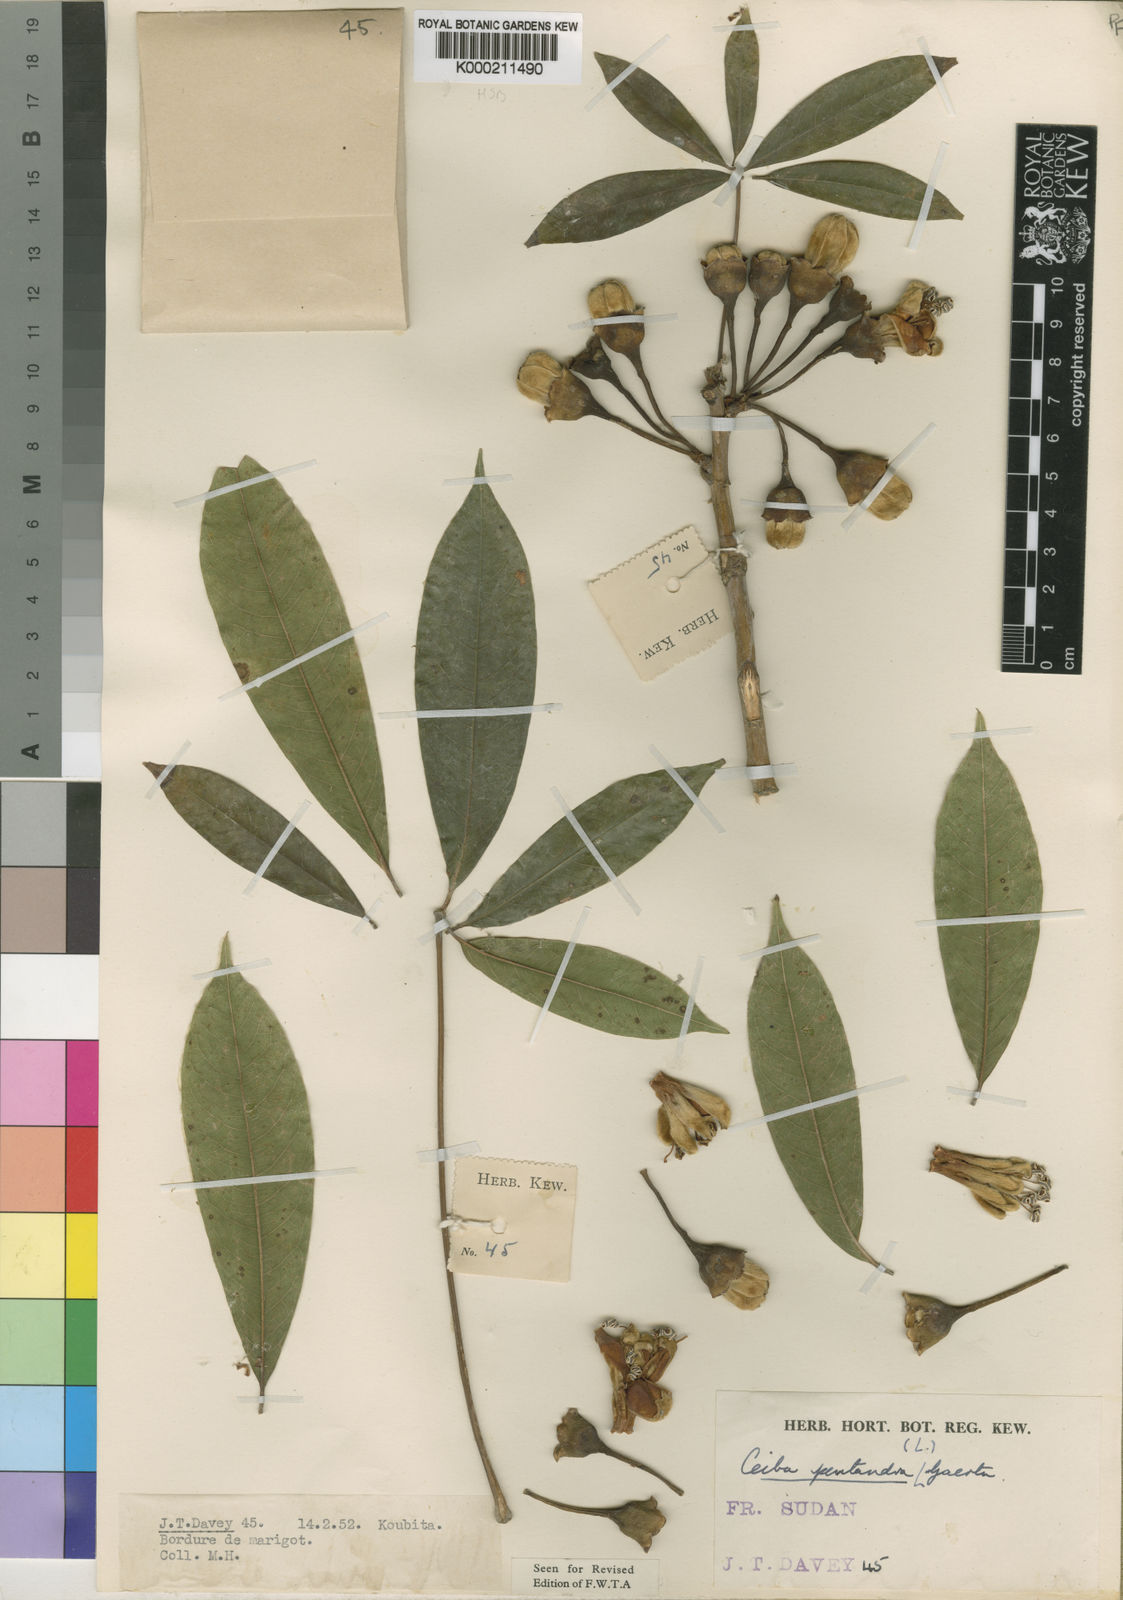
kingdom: Plantae
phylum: Tracheophyta
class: Magnoliopsida
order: Malvales
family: Malvaceae
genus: Ceiba
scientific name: Ceiba pentandra
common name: Kapok
